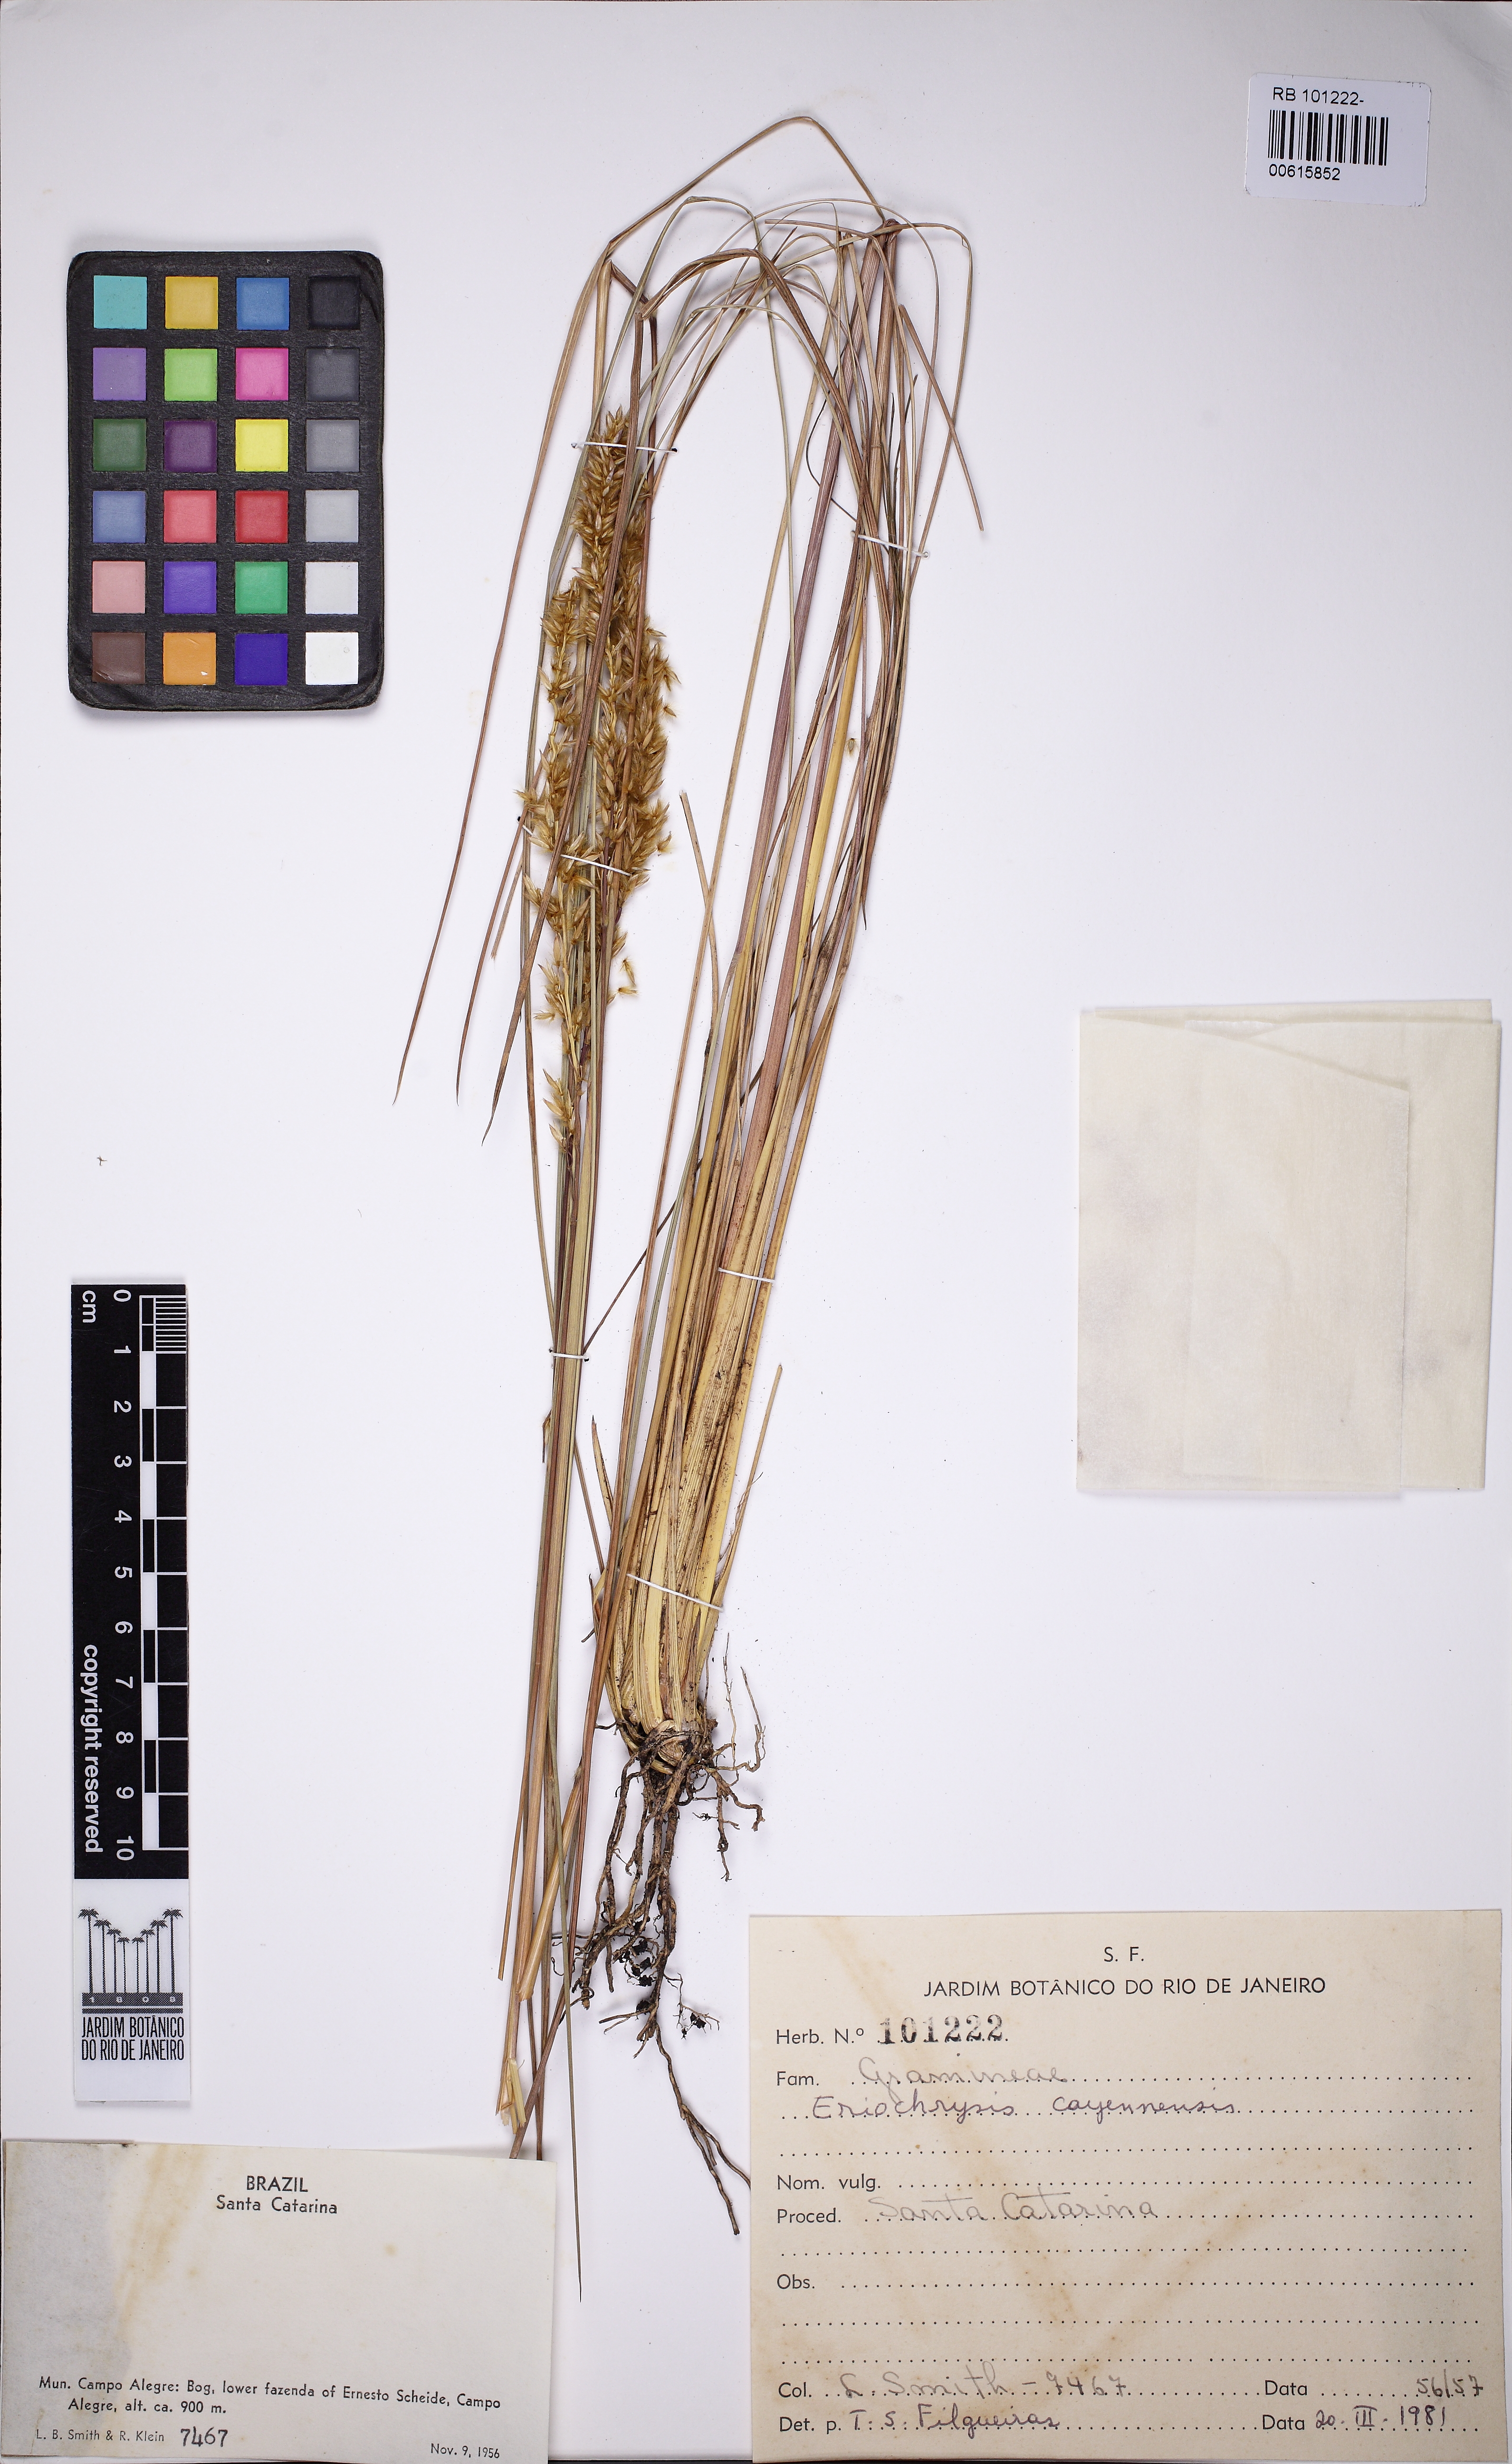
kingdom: Plantae
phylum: Tracheophyta
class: Liliopsida
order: Poales
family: Poaceae
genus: Eriochrysis
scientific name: Eriochrysis cayennensis
